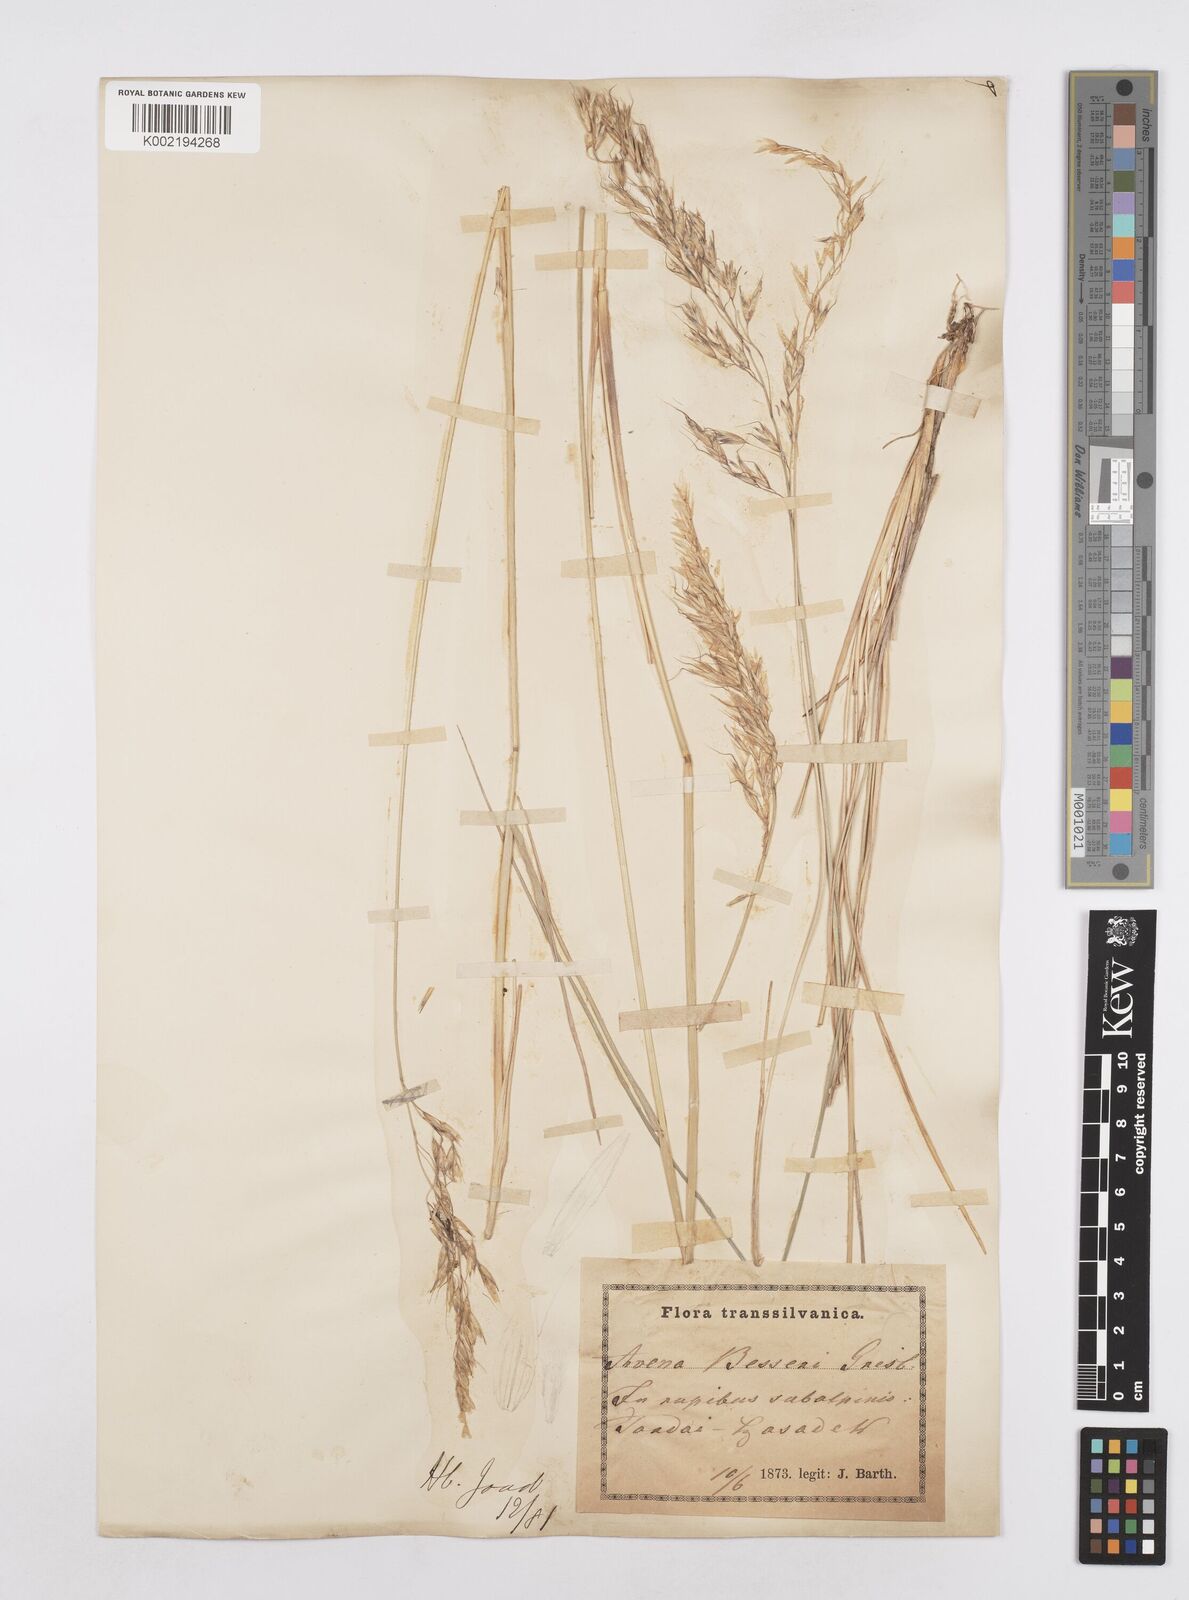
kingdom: Plantae
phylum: Tracheophyta
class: Liliopsida
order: Poales
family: Poaceae
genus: Helictotrichon
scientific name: Helictotrichon decorum
